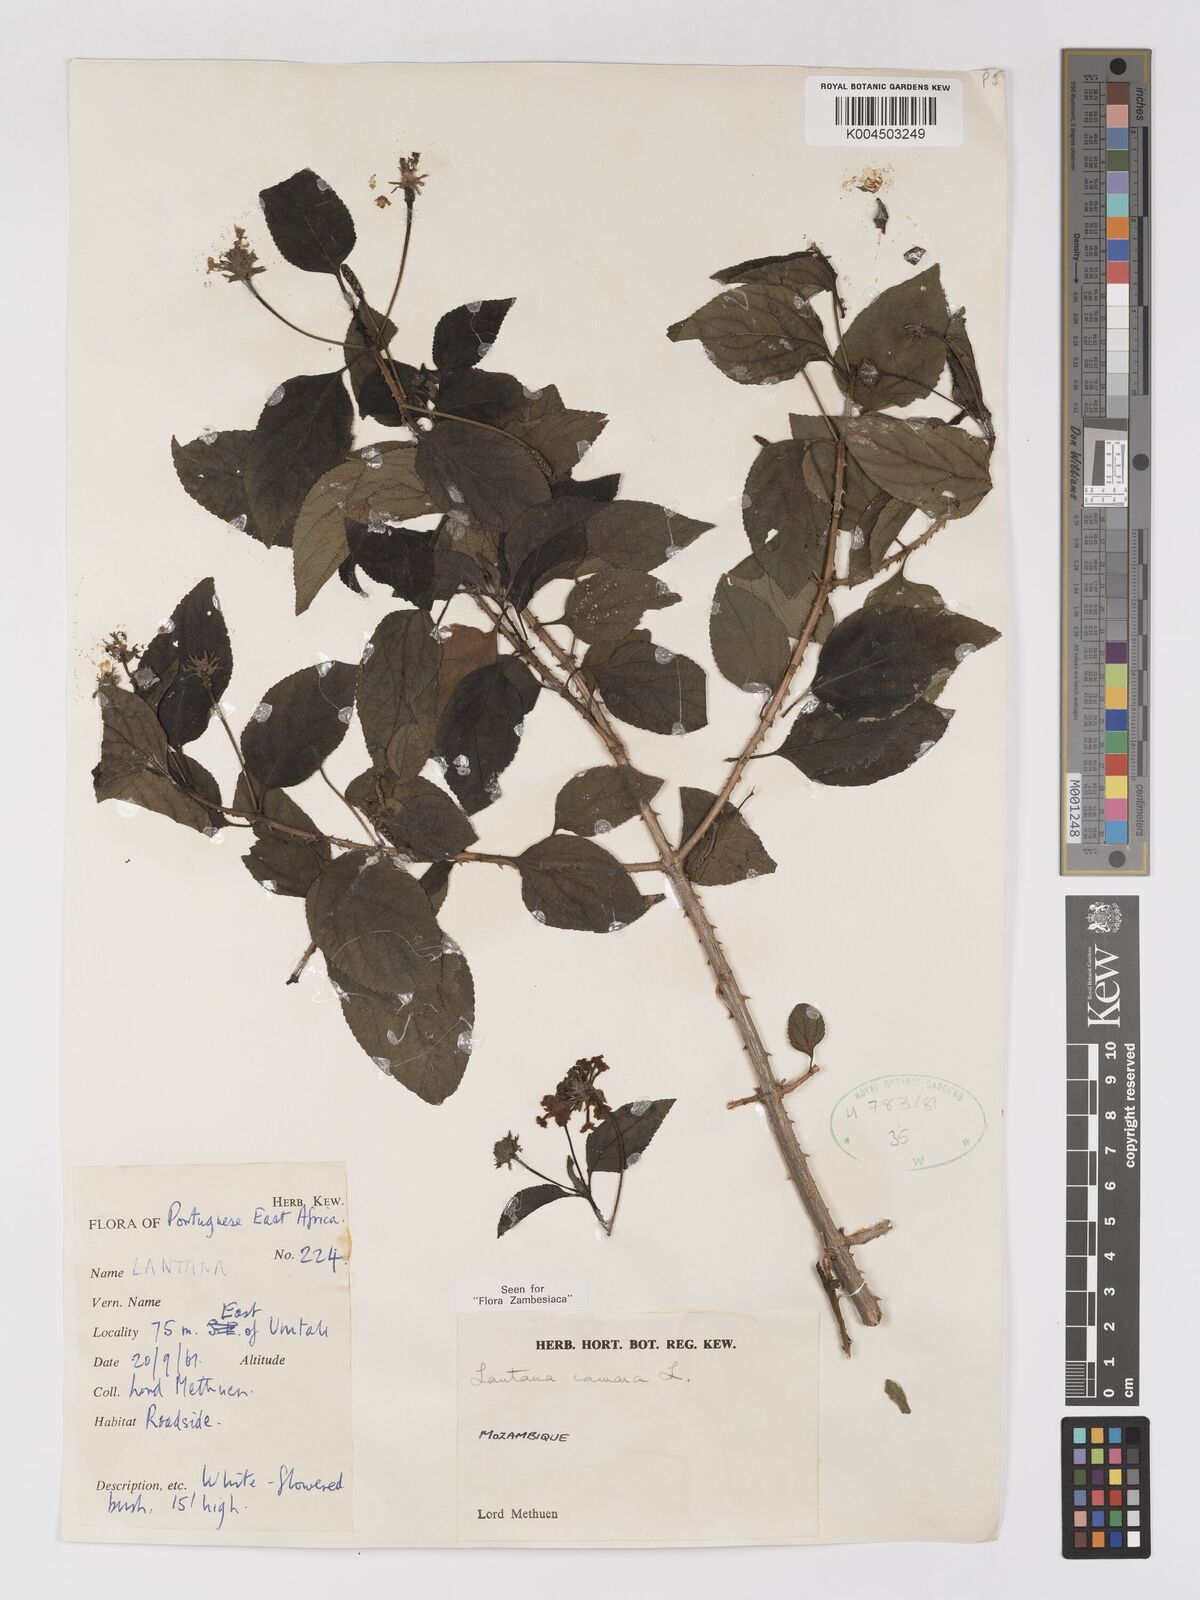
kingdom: Plantae
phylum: Tracheophyta
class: Magnoliopsida
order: Lamiales
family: Verbenaceae
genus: Lantana
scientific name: Lantana camara
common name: Lantana
